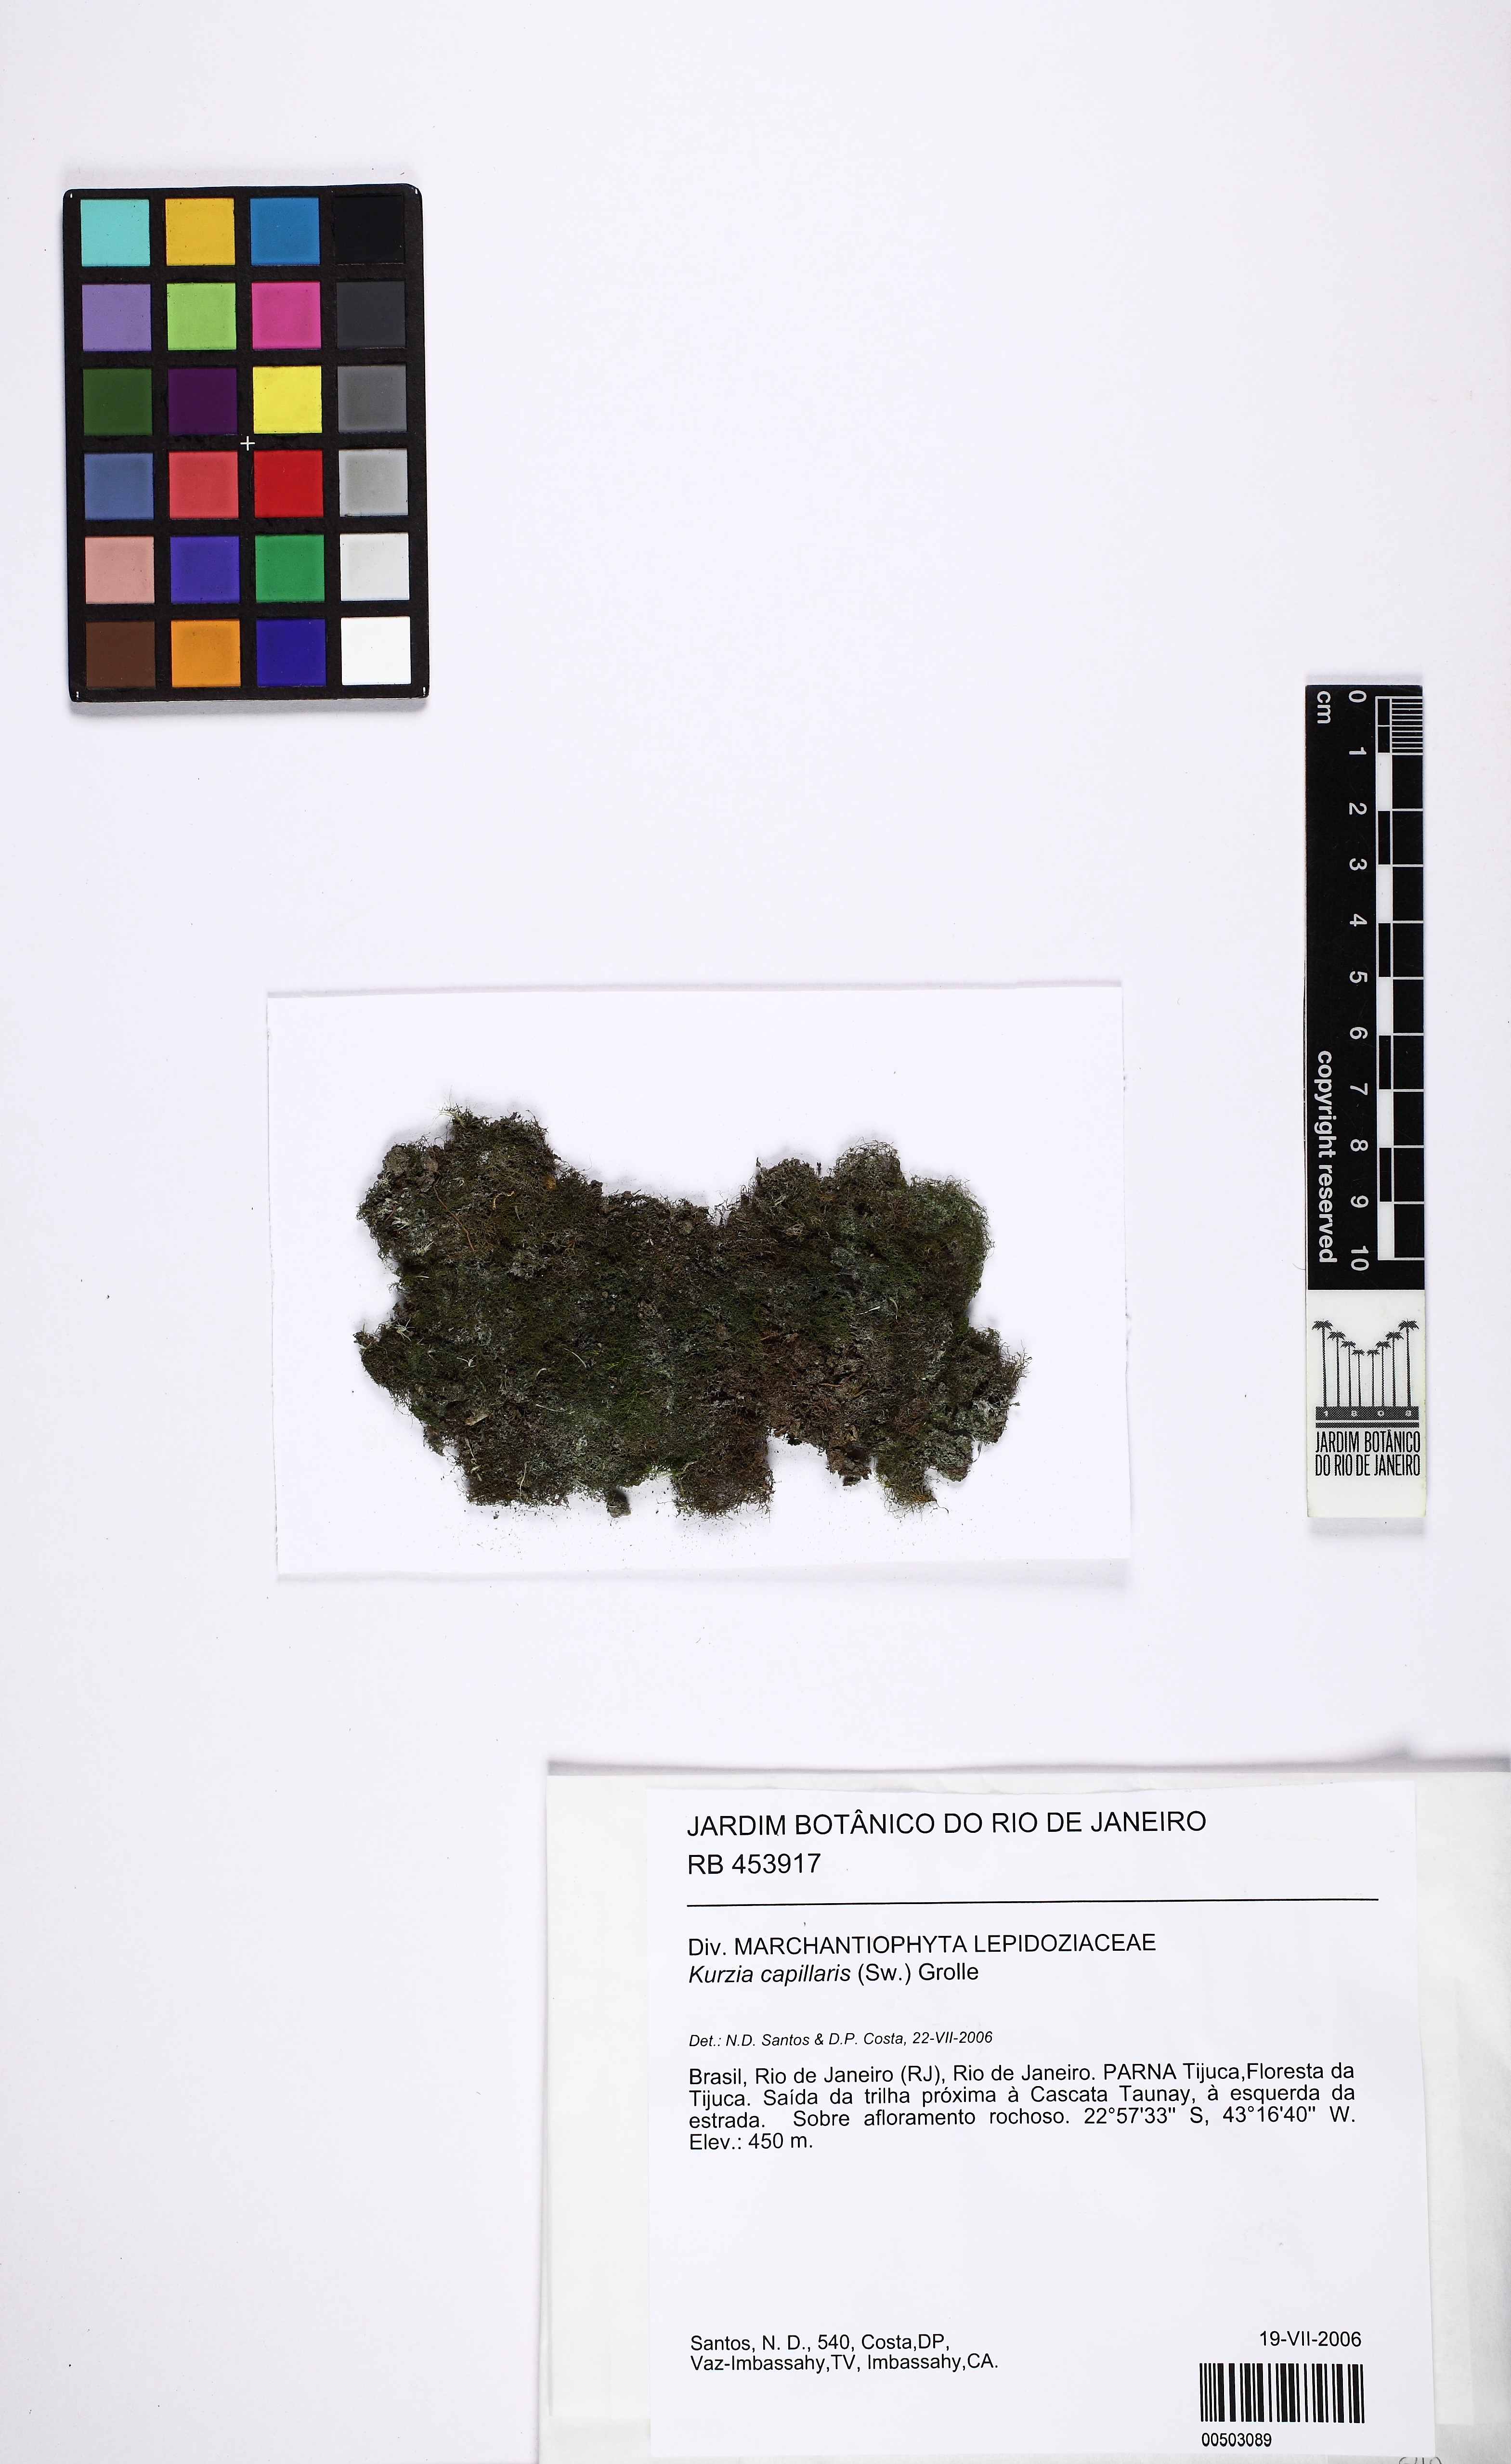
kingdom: Plantae
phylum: Marchantiophyta
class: Jungermanniopsida
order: Jungermanniales
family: Lepidoziaceae
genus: Kurzia
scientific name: Kurzia capillaris
